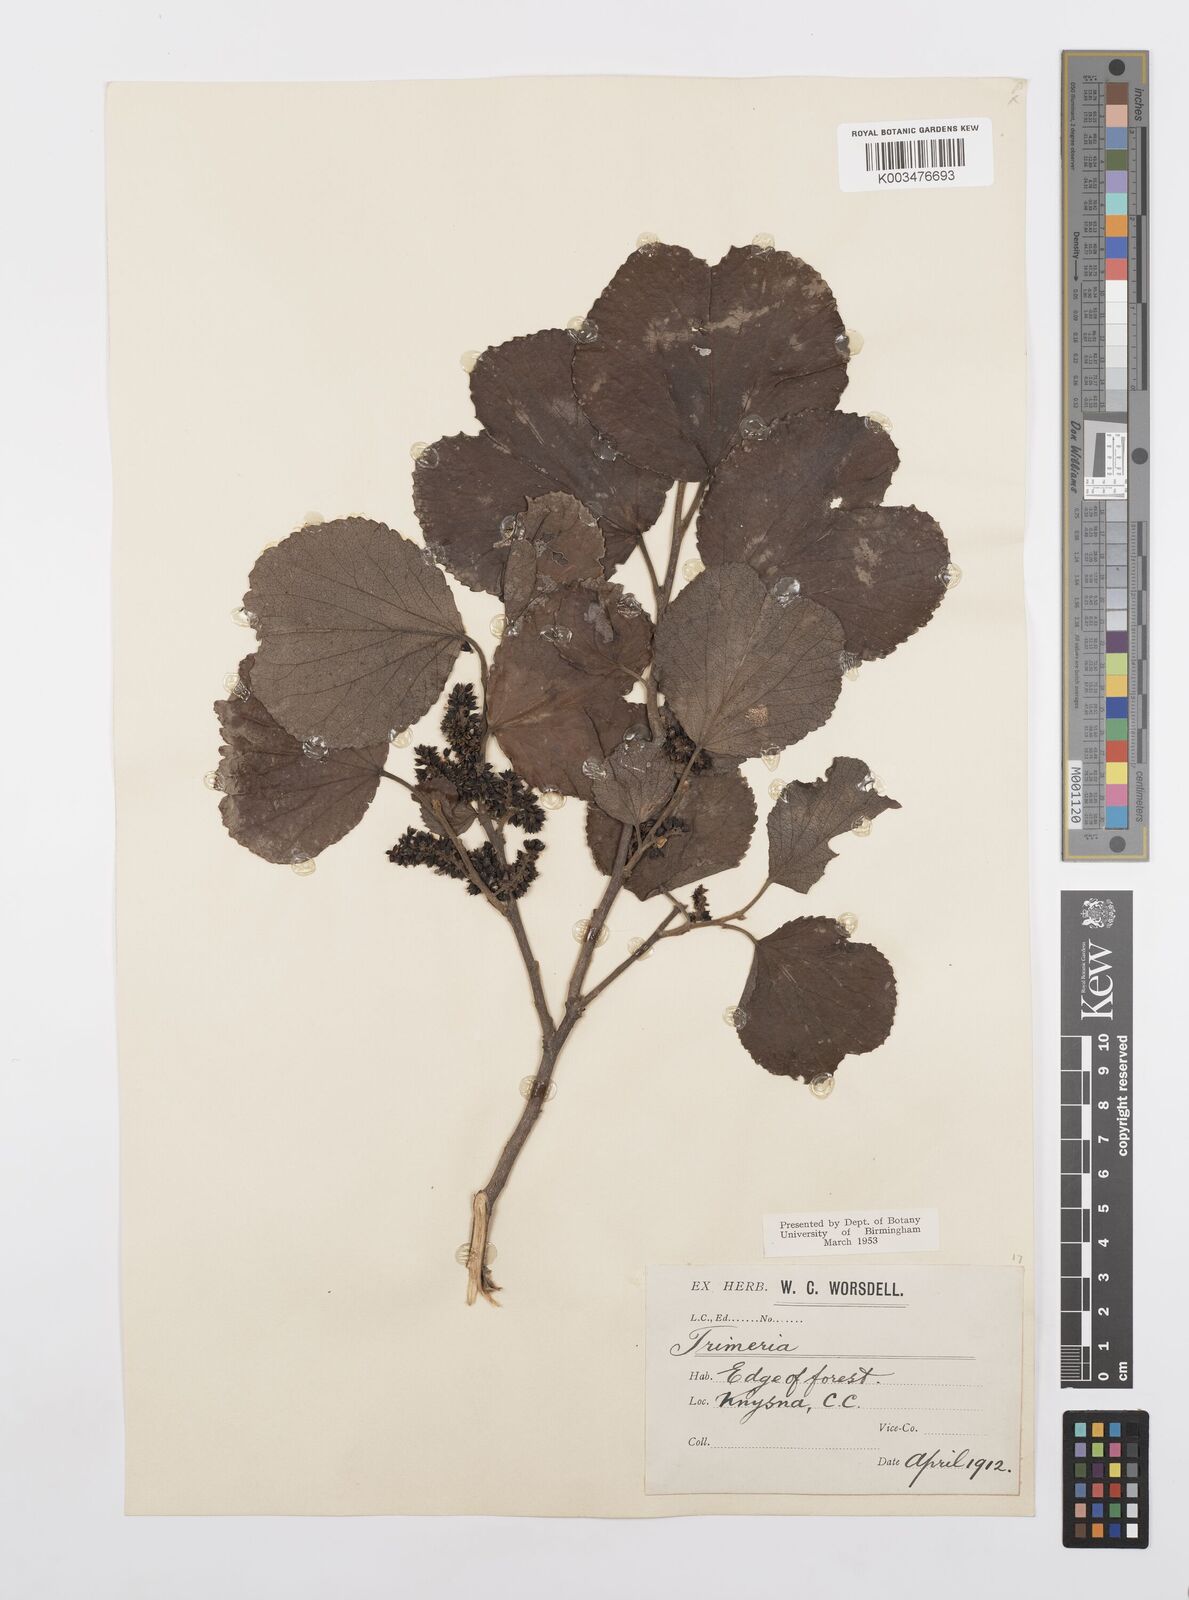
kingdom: Plantae
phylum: Tracheophyta
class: Magnoliopsida
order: Malpighiales
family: Salicaceae
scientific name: Salicaceae
